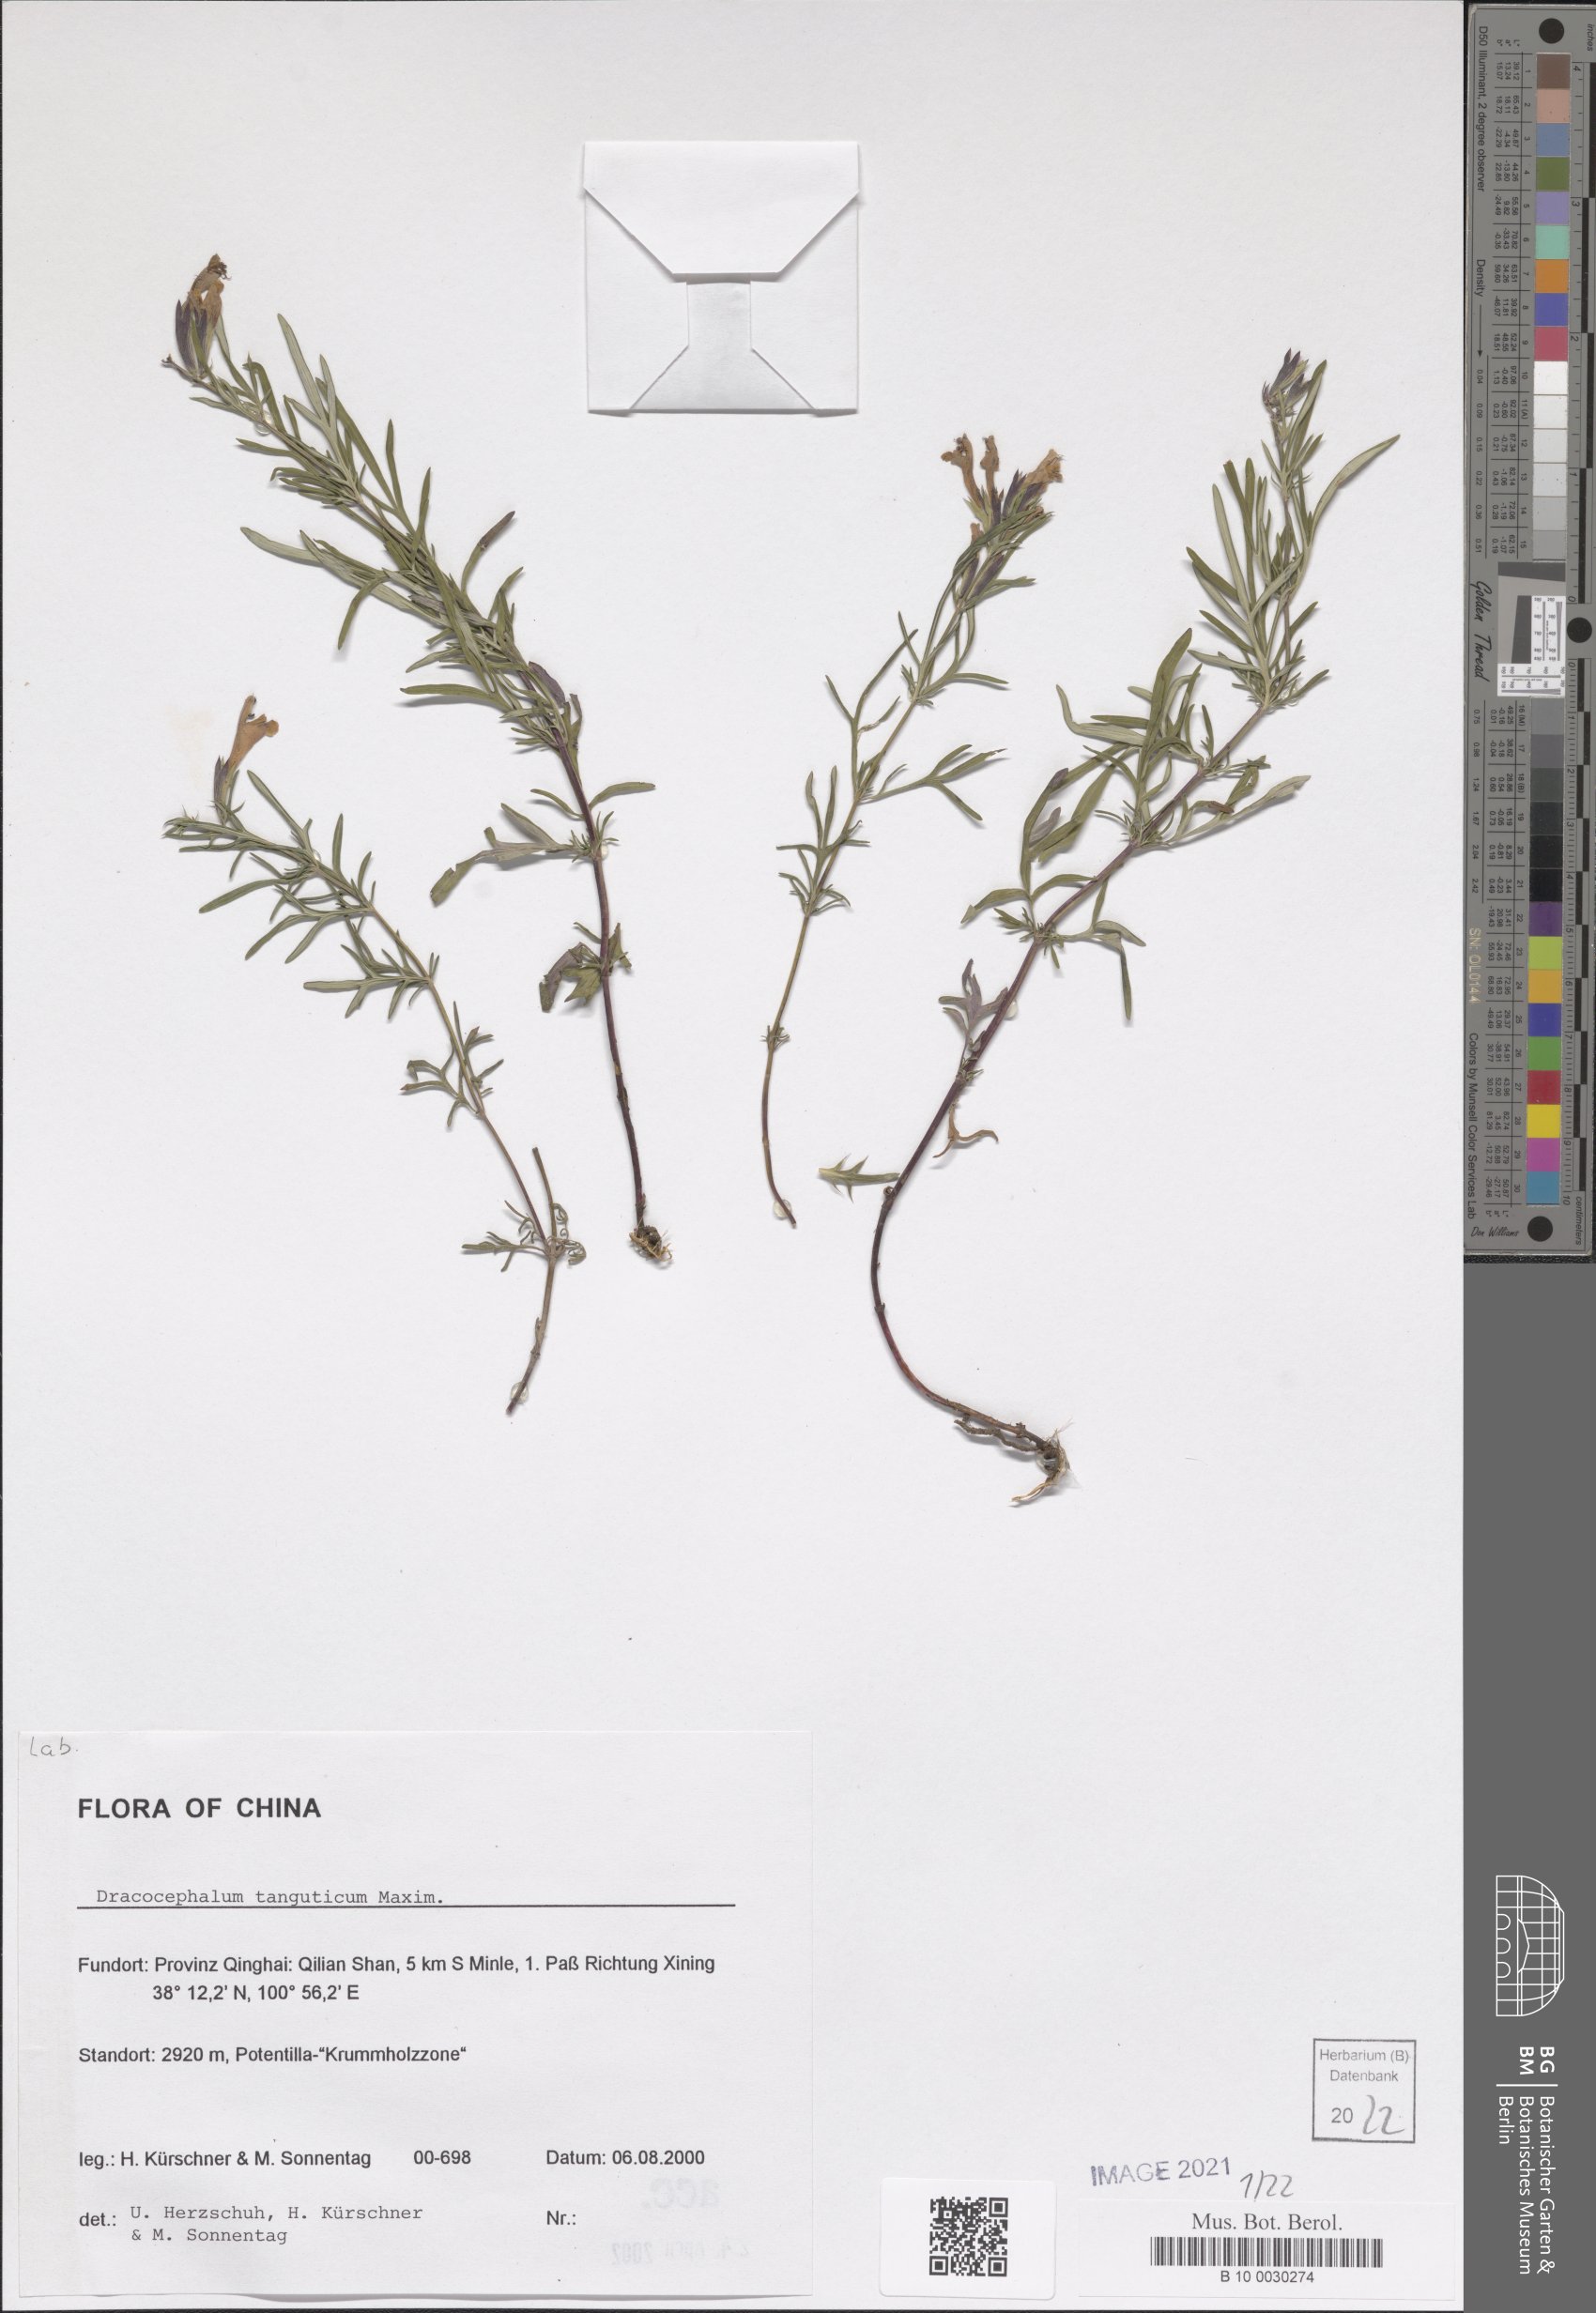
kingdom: Plantae
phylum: Tracheophyta
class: Magnoliopsida
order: Lamiales
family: Lamiaceae
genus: Dracocephalum
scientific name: Dracocephalum tanguticum
